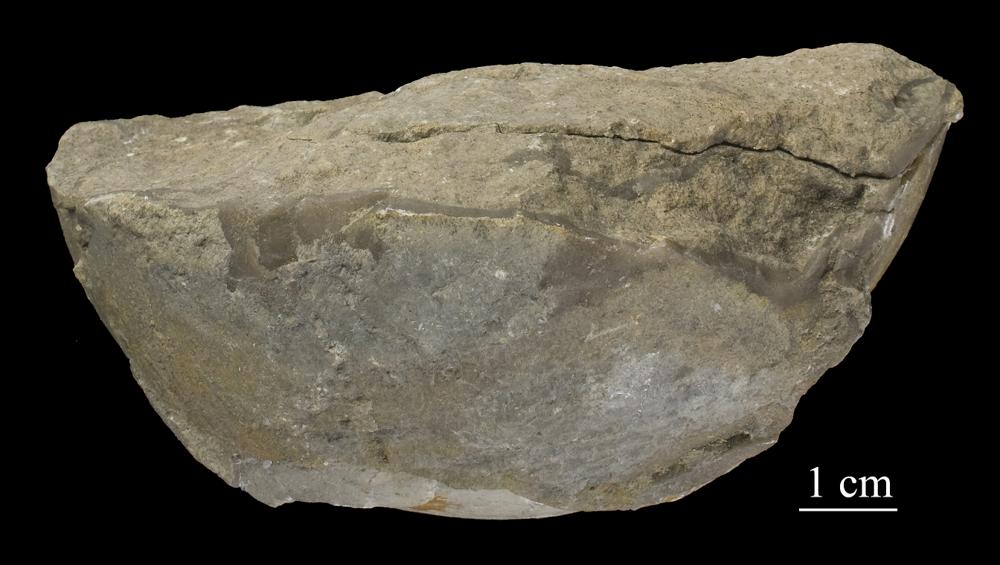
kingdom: Animalia
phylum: Arthropoda
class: Trilobita
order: Corynexochida
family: Illaenidae
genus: Illaenus
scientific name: Illaenus
